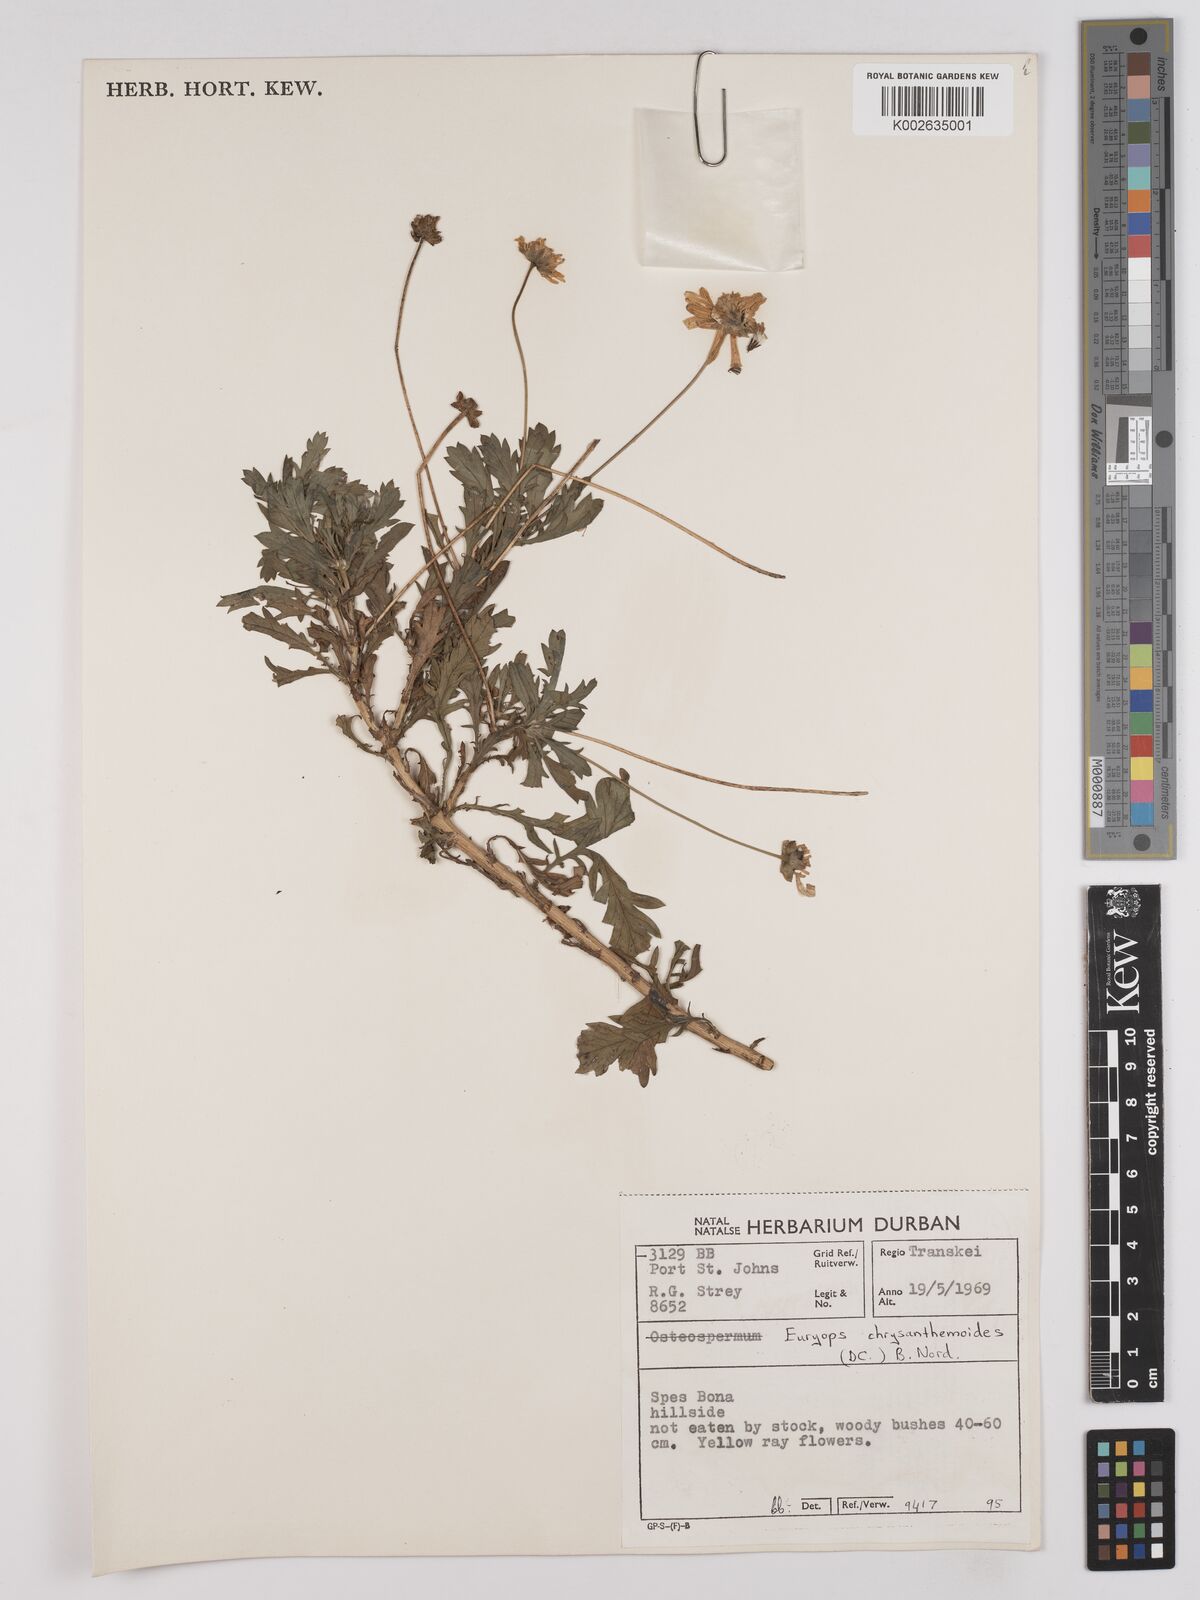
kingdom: Plantae
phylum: Tracheophyta
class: Magnoliopsida
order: Asterales
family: Asteraceae
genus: Euryops
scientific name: Euryops chrysanthemoides
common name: Bull's eye
